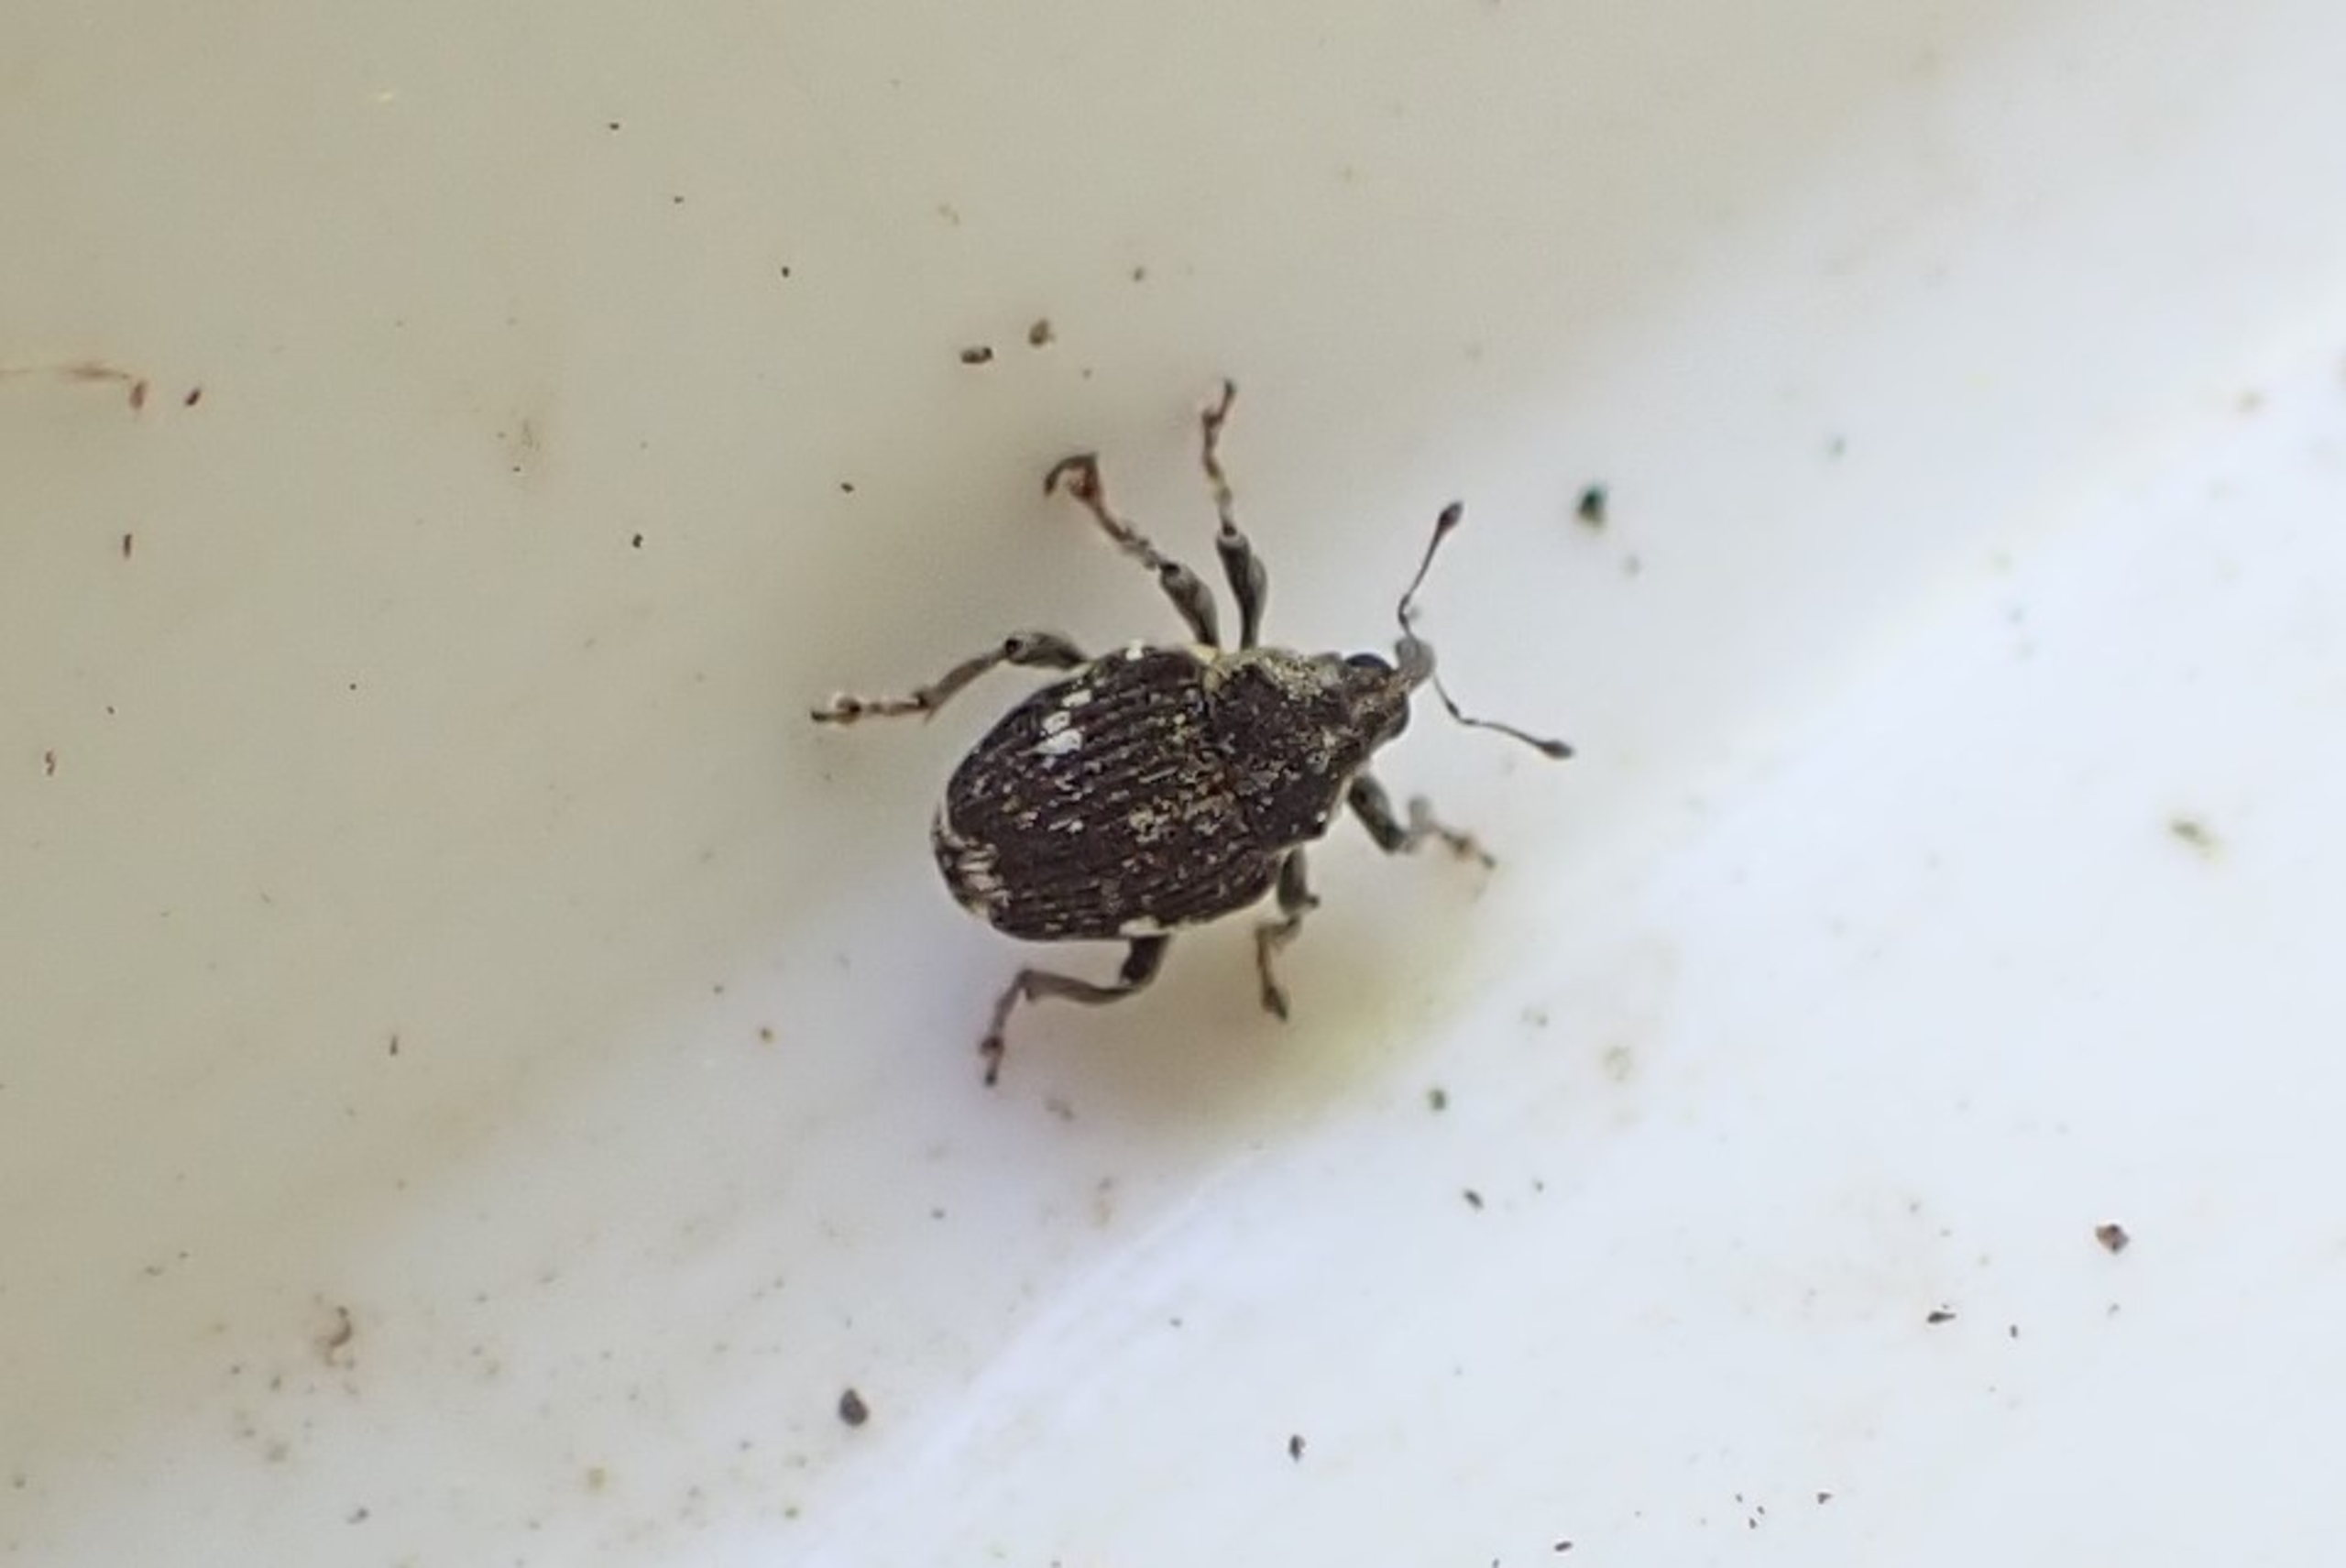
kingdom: Animalia
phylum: Arthropoda
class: Insecta
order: Coleoptera
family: Curculionidae
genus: Nedyus
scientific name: Nedyus quadrimaculatus
